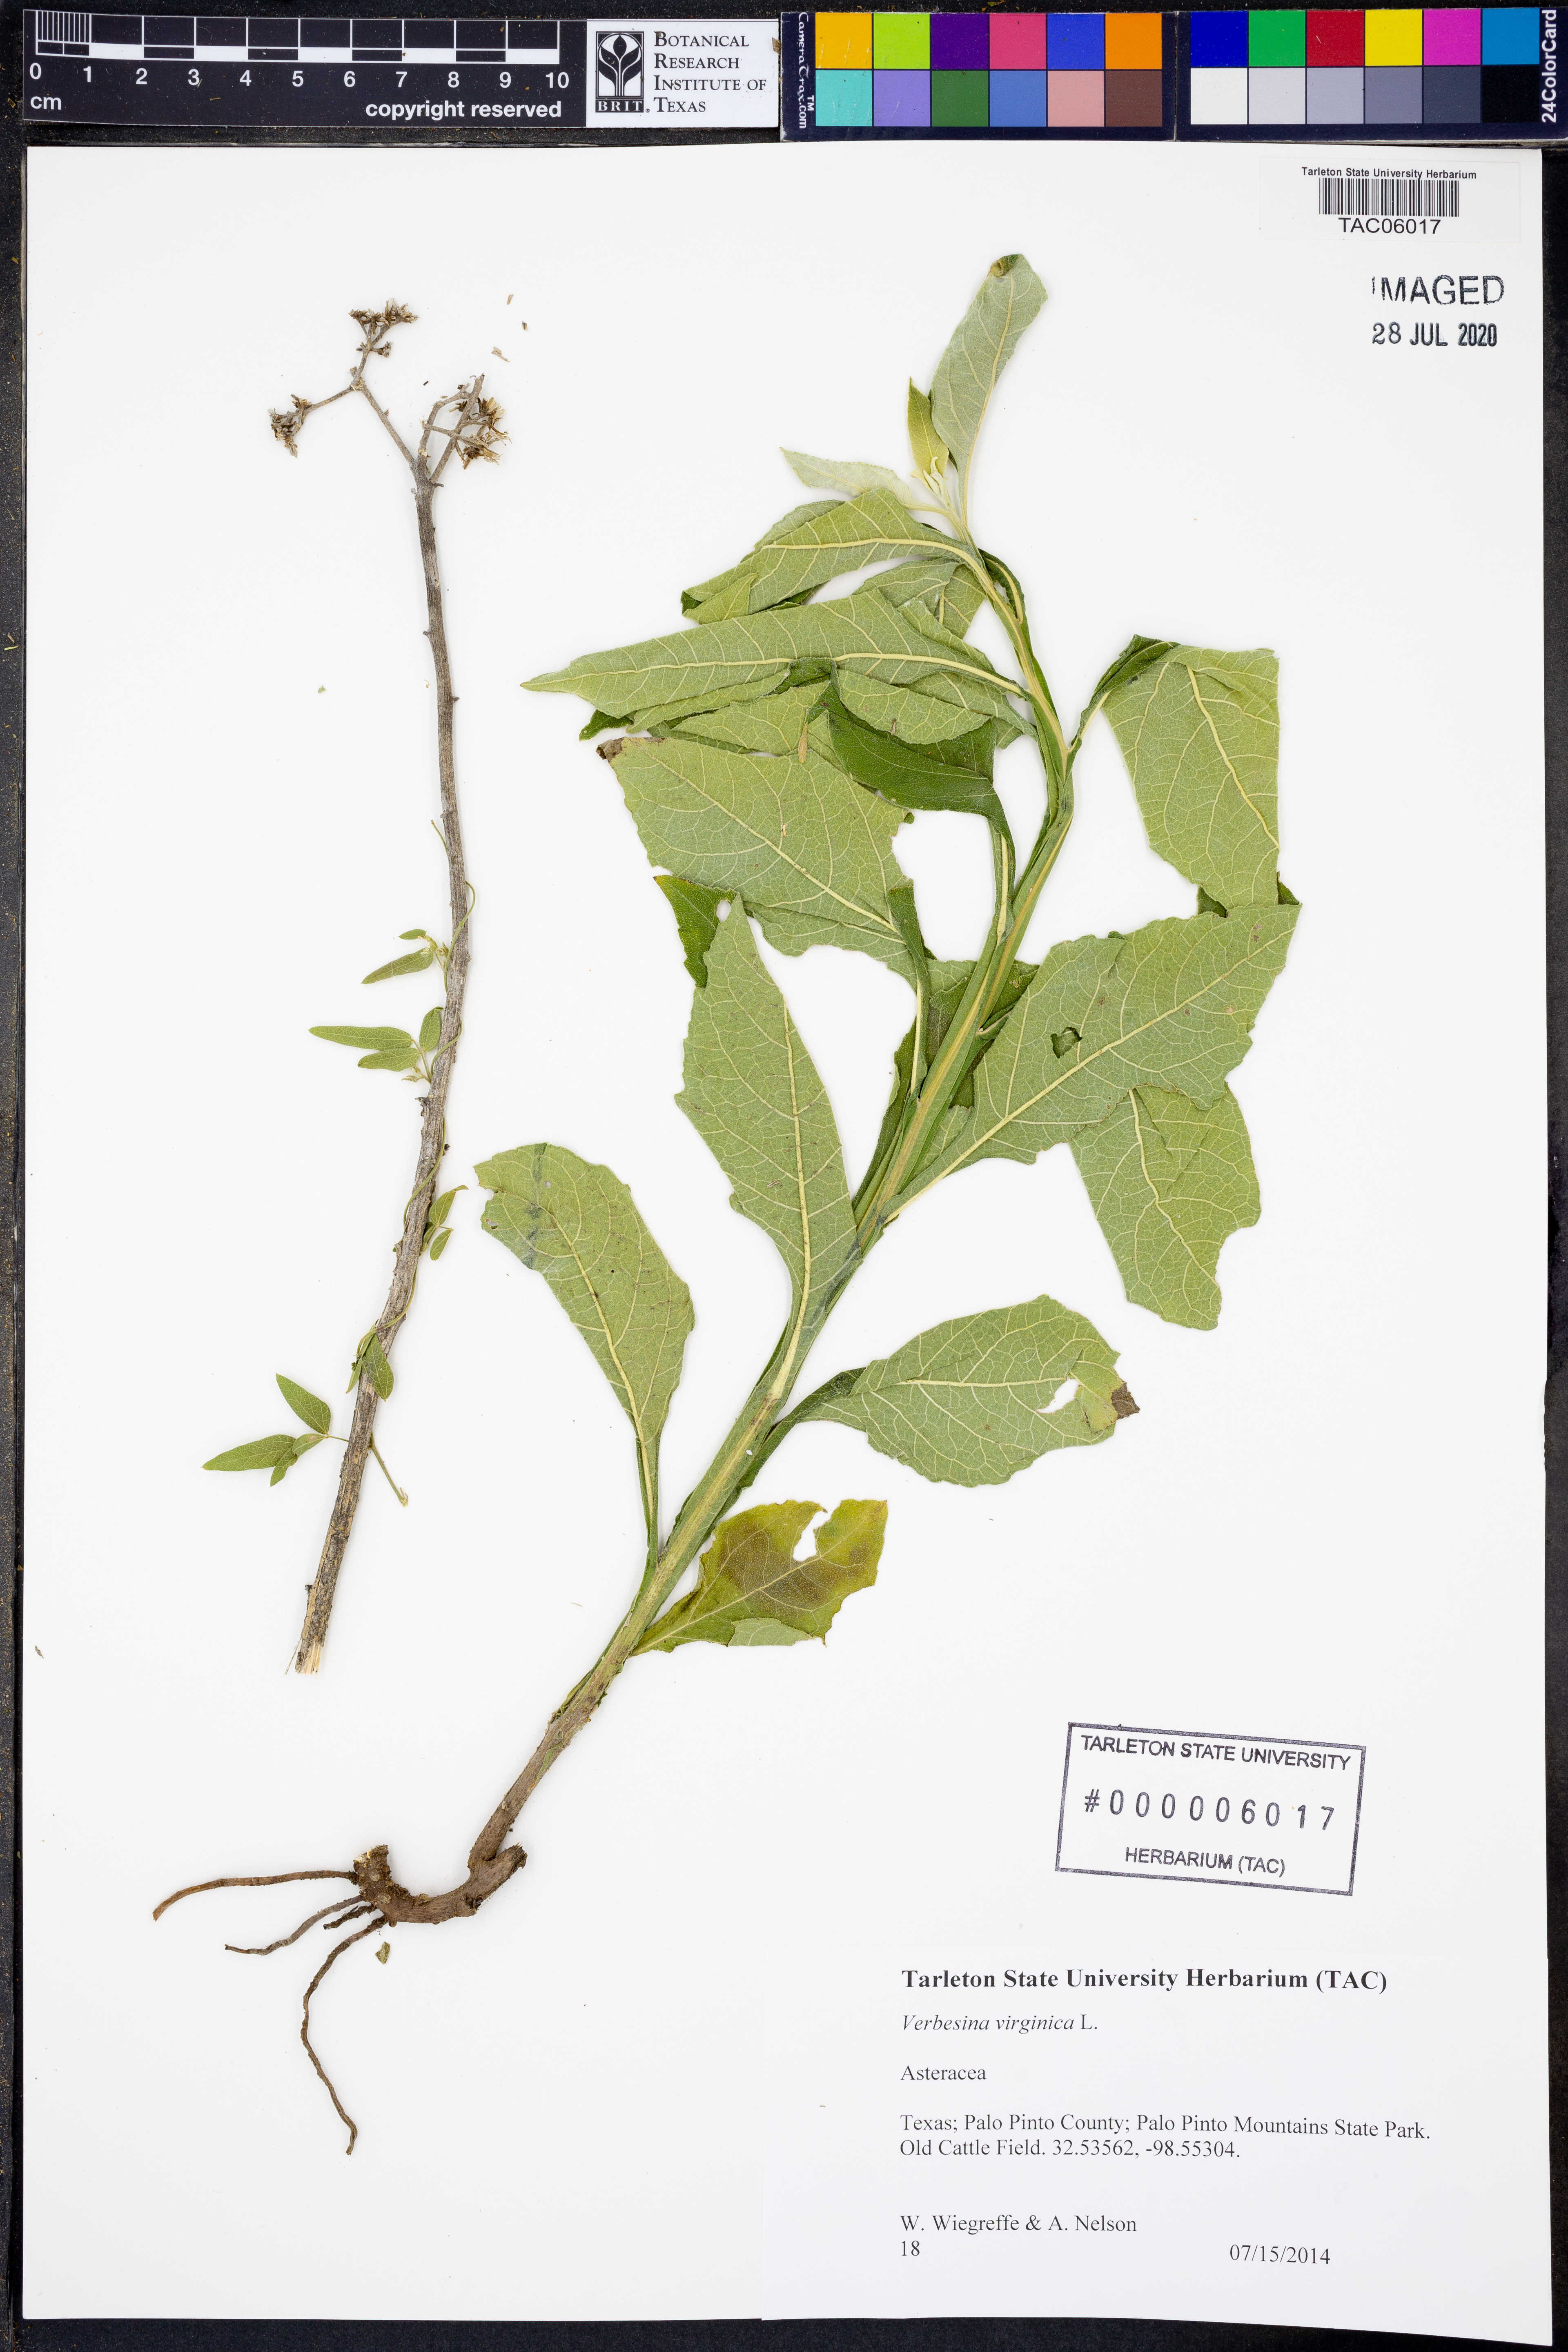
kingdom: Plantae
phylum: Tracheophyta
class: Magnoliopsida
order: Asterales
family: Asteraceae
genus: Verbesina
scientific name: Verbesina virginica
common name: Frostweed
